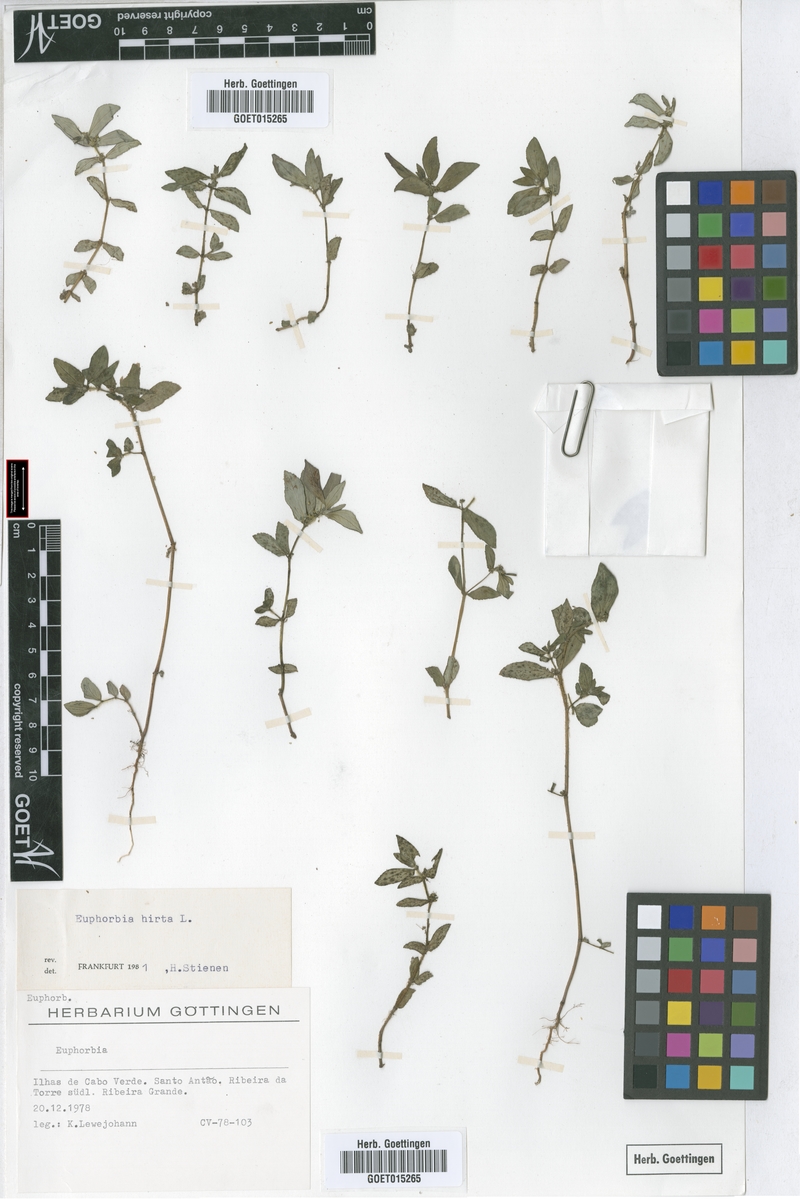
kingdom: Plantae
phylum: Tracheophyta
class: Magnoliopsida
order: Malpighiales
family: Euphorbiaceae
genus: Euphorbia
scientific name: Euphorbia hirta
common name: Pillpod sandmat
